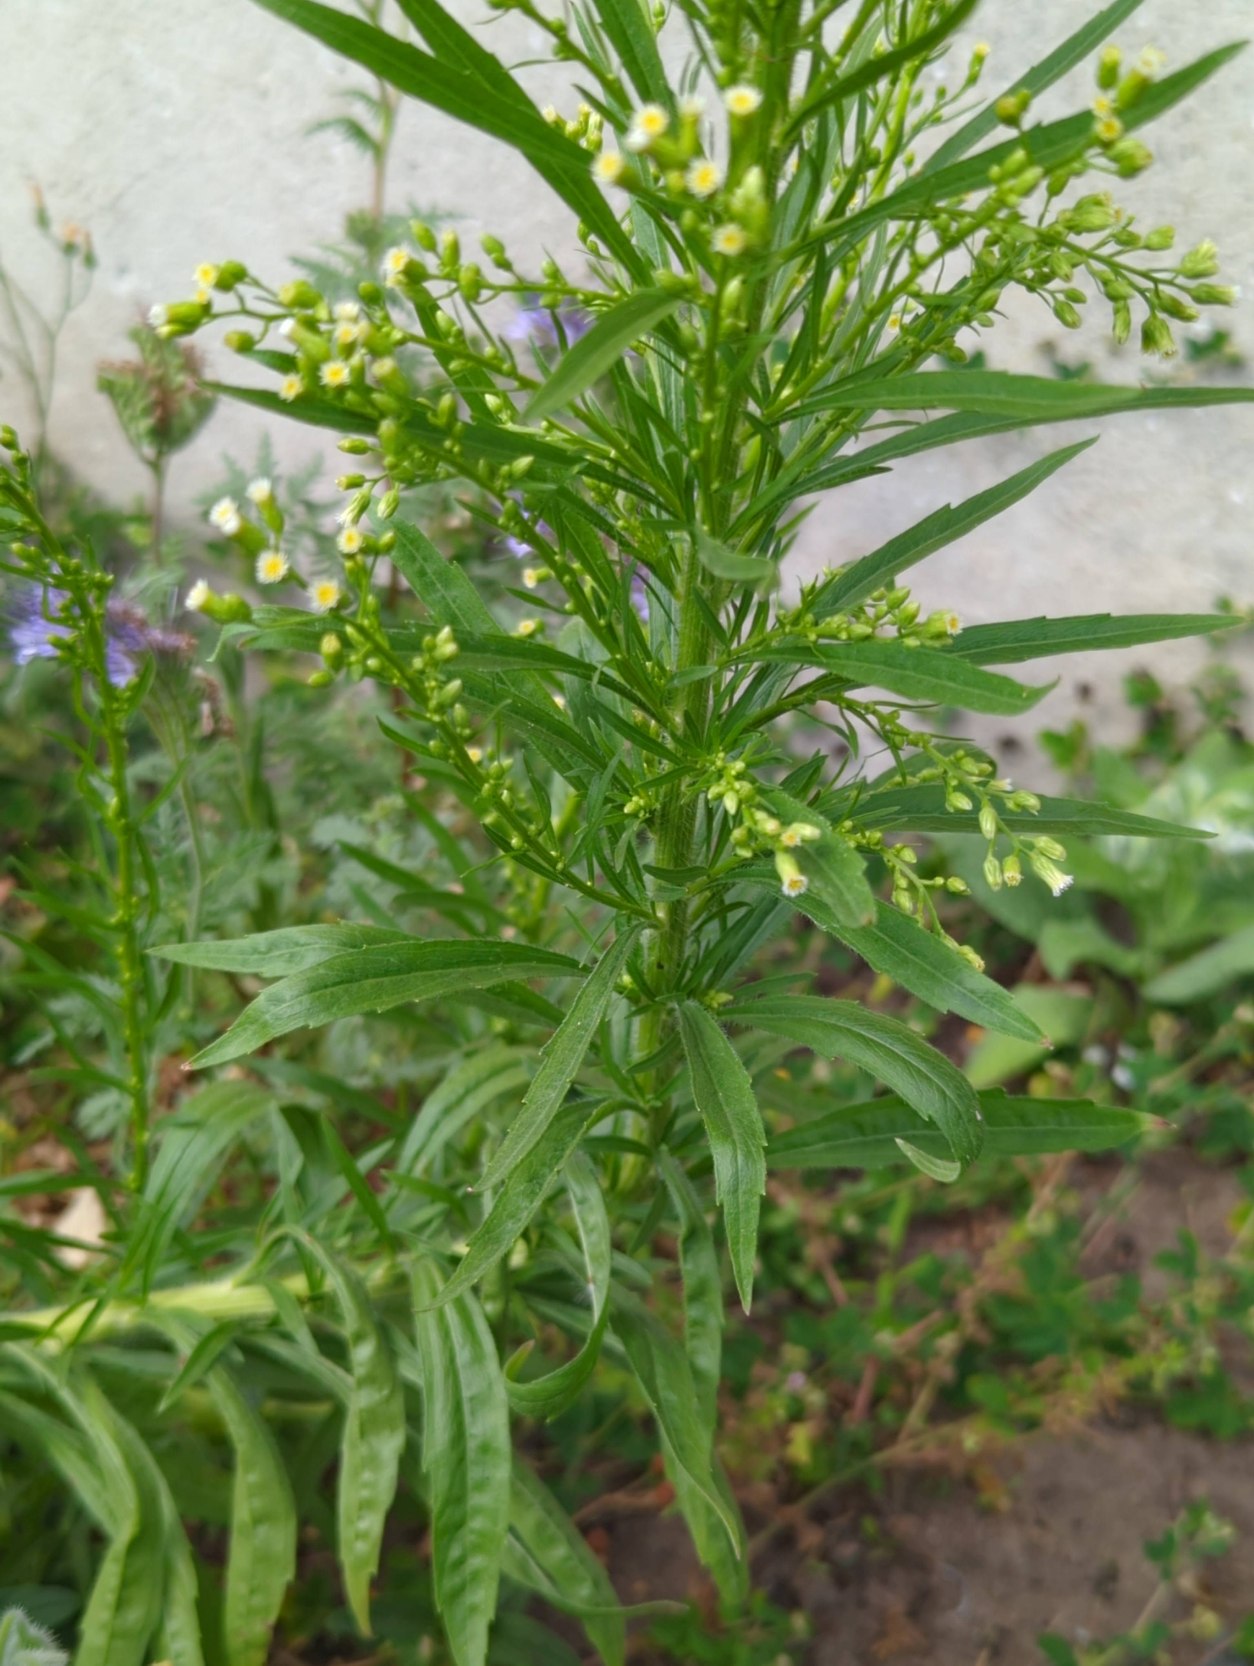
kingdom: Plantae
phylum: Tracheophyta
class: Magnoliopsida
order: Asterales
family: Asteraceae
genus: Erigeron
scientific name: Erigeron canadensis
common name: Kanadisk bakkestjerne
